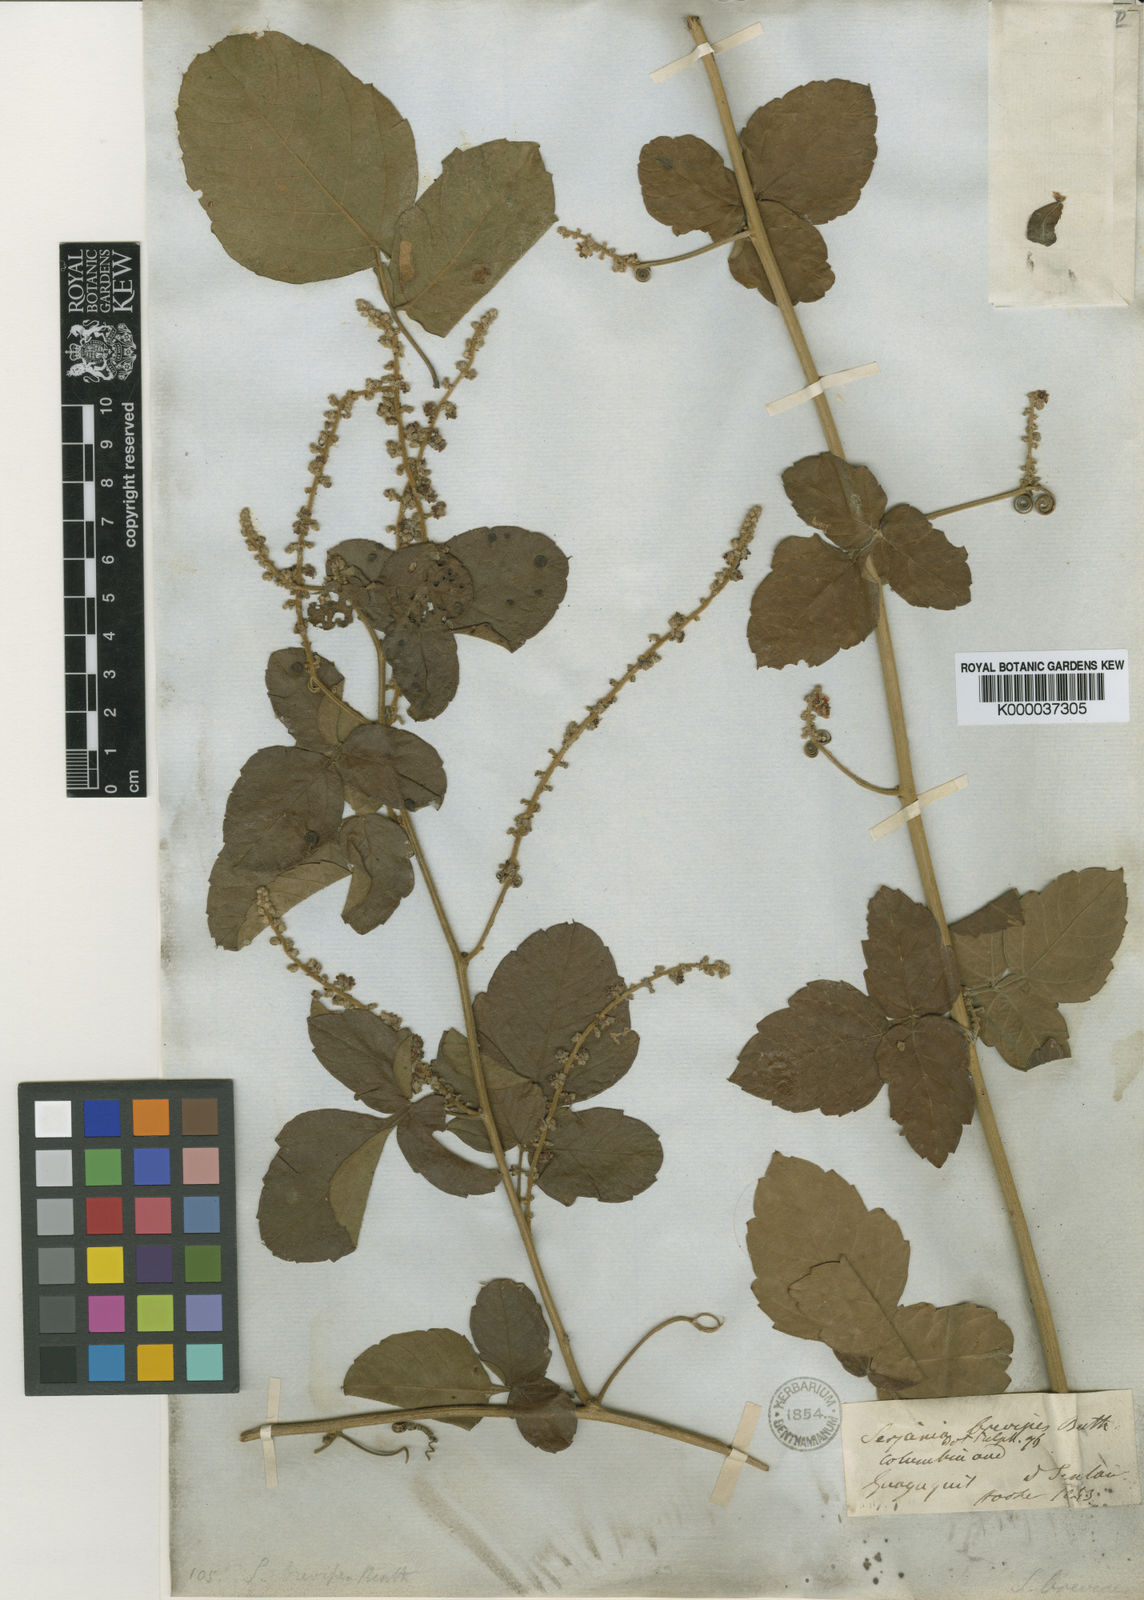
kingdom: Plantae
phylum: Tracheophyta
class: Magnoliopsida
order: Sapindales
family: Sapindaceae
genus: Serjania
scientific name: Serjania brevipes
